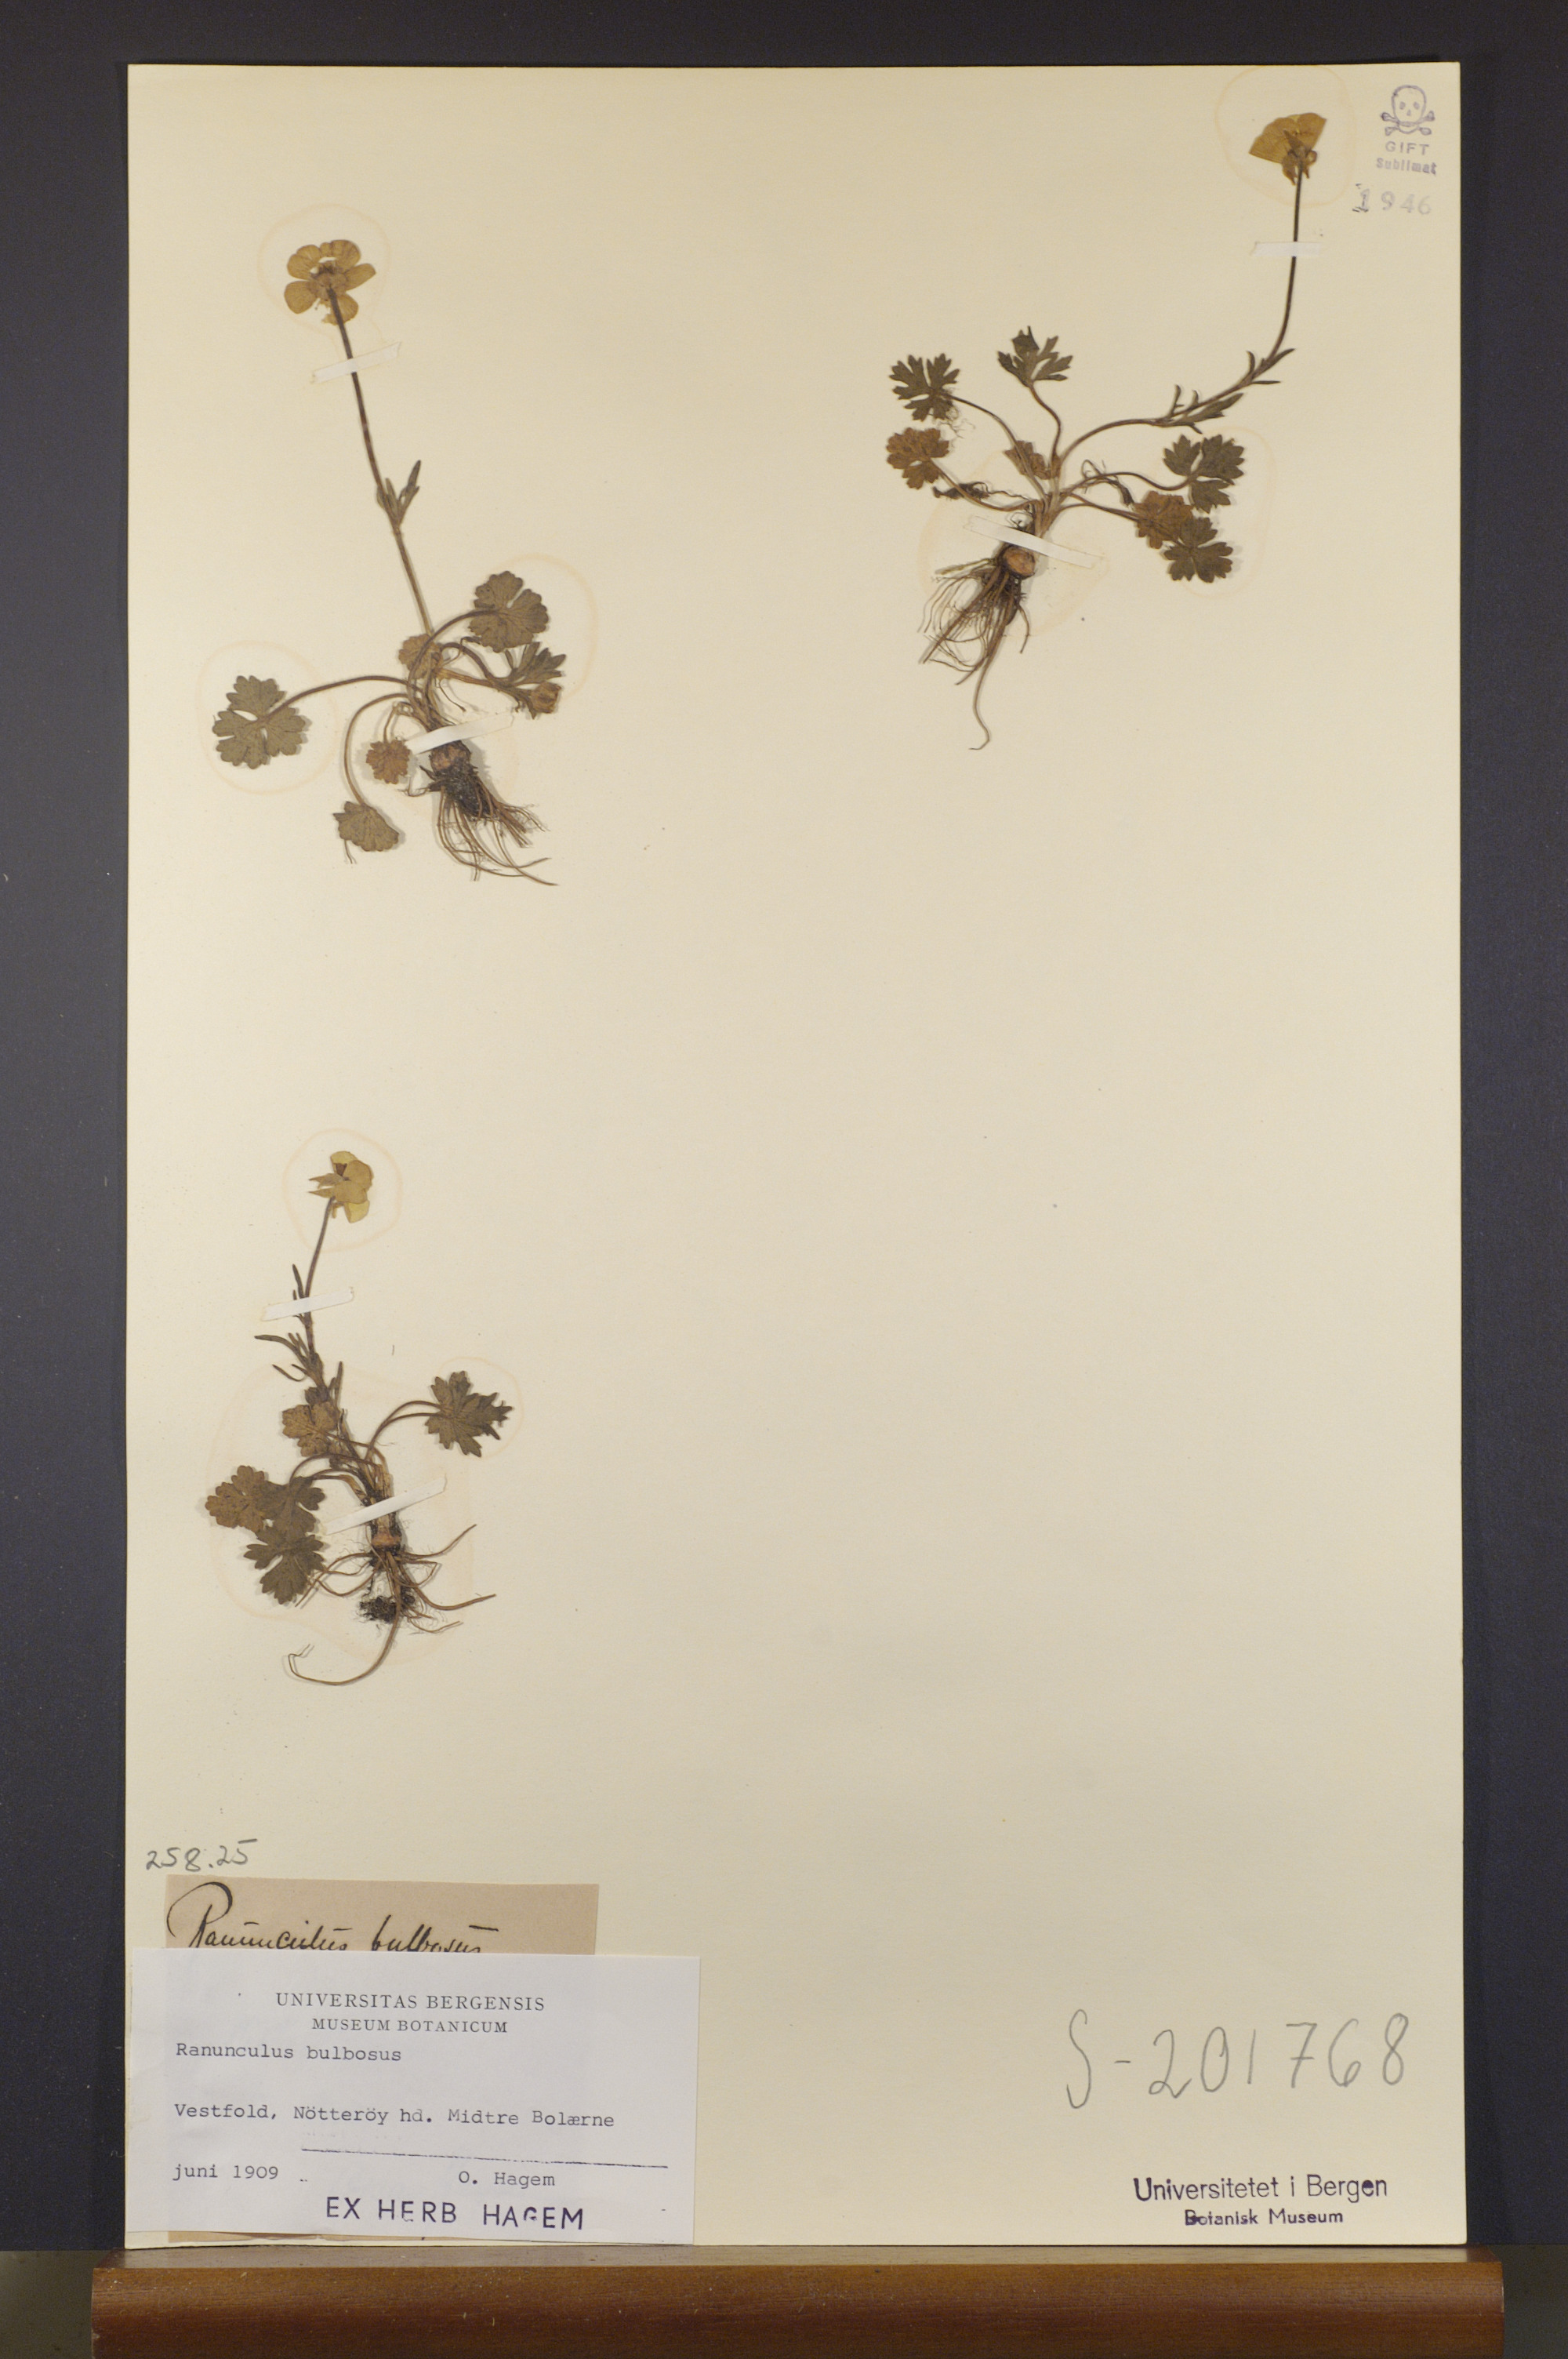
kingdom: Plantae
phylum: Tracheophyta
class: Magnoliopsida
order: Ranunculales
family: Ranunculaceae
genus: Ranunculus
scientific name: Ranunculus bulbosus
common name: Bulbous buttercup
